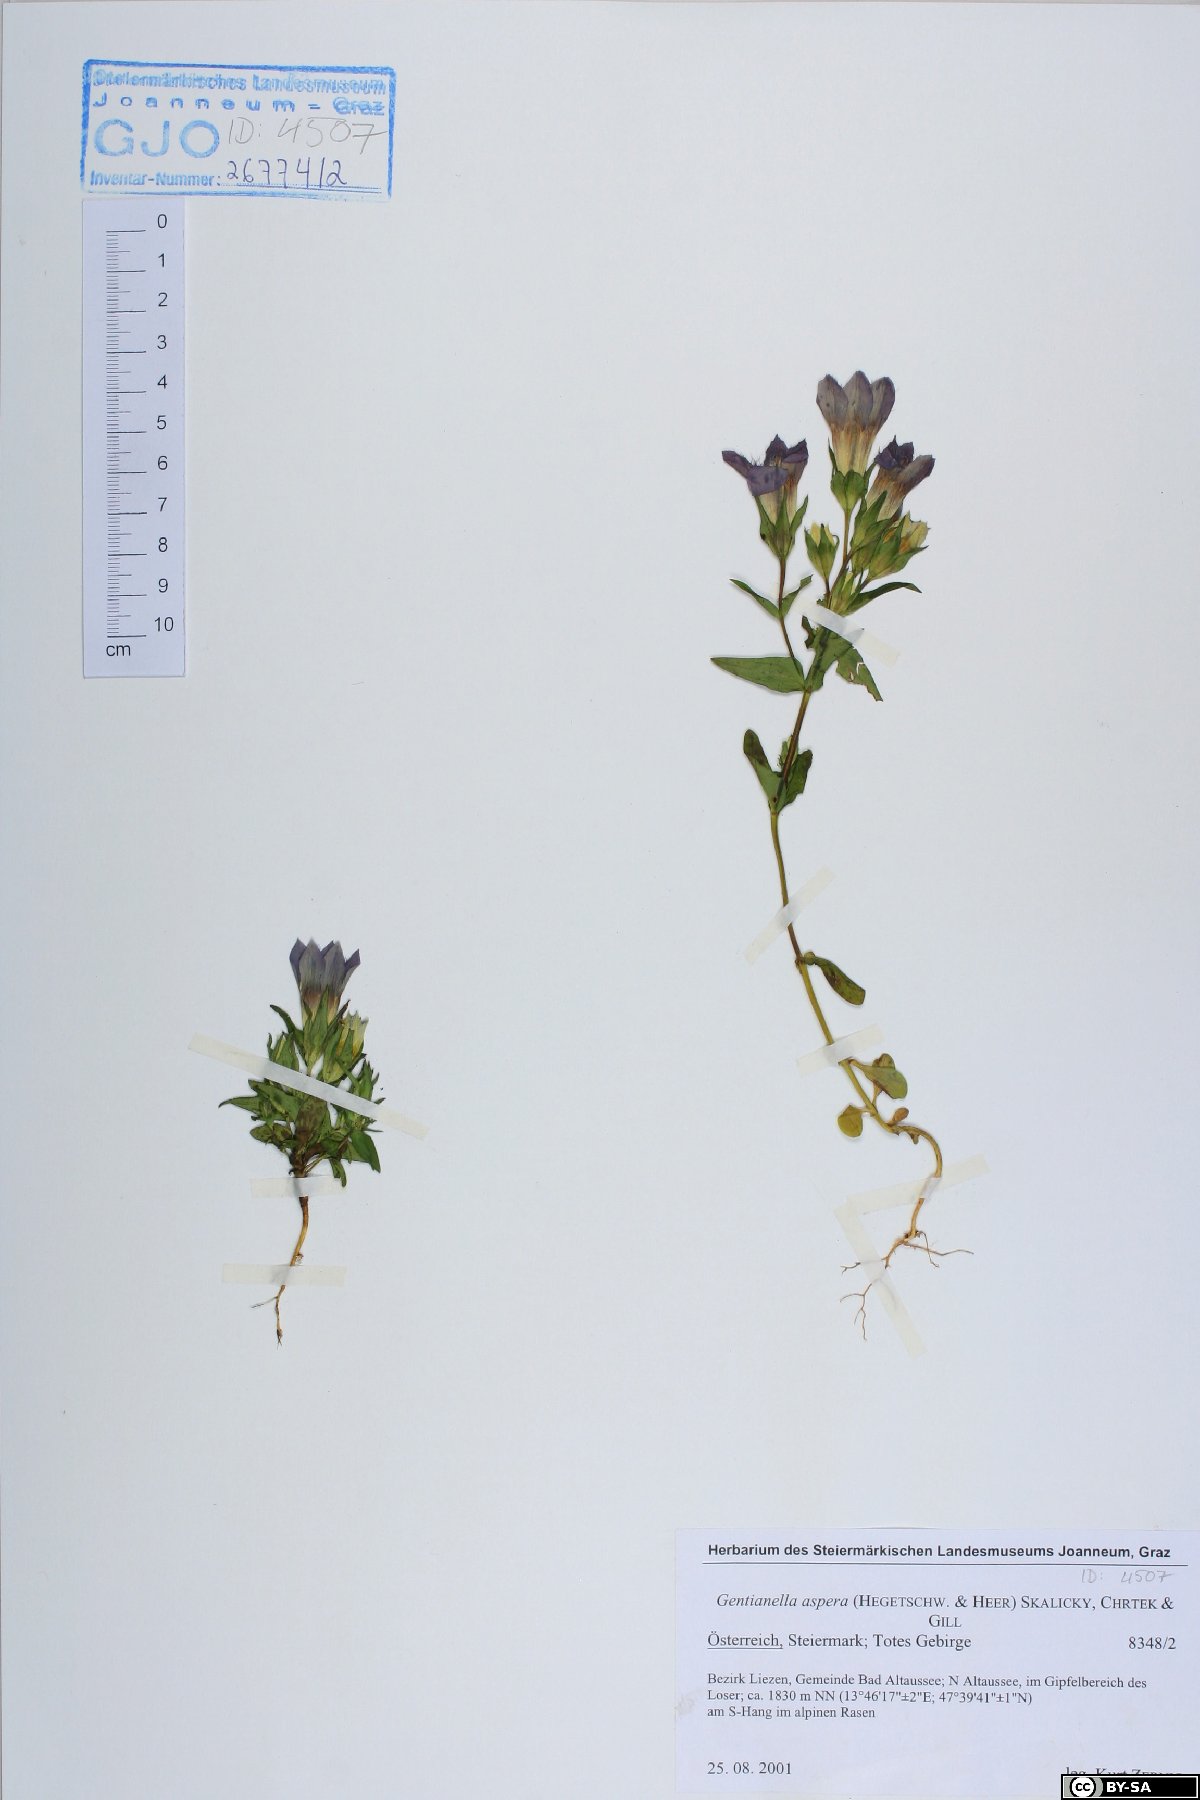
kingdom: Plantae
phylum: Tracheophyta
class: Magnoliopsida
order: Gentianales
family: Gentianaceae
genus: Gentianella
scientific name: Gentianella obtusifolia
